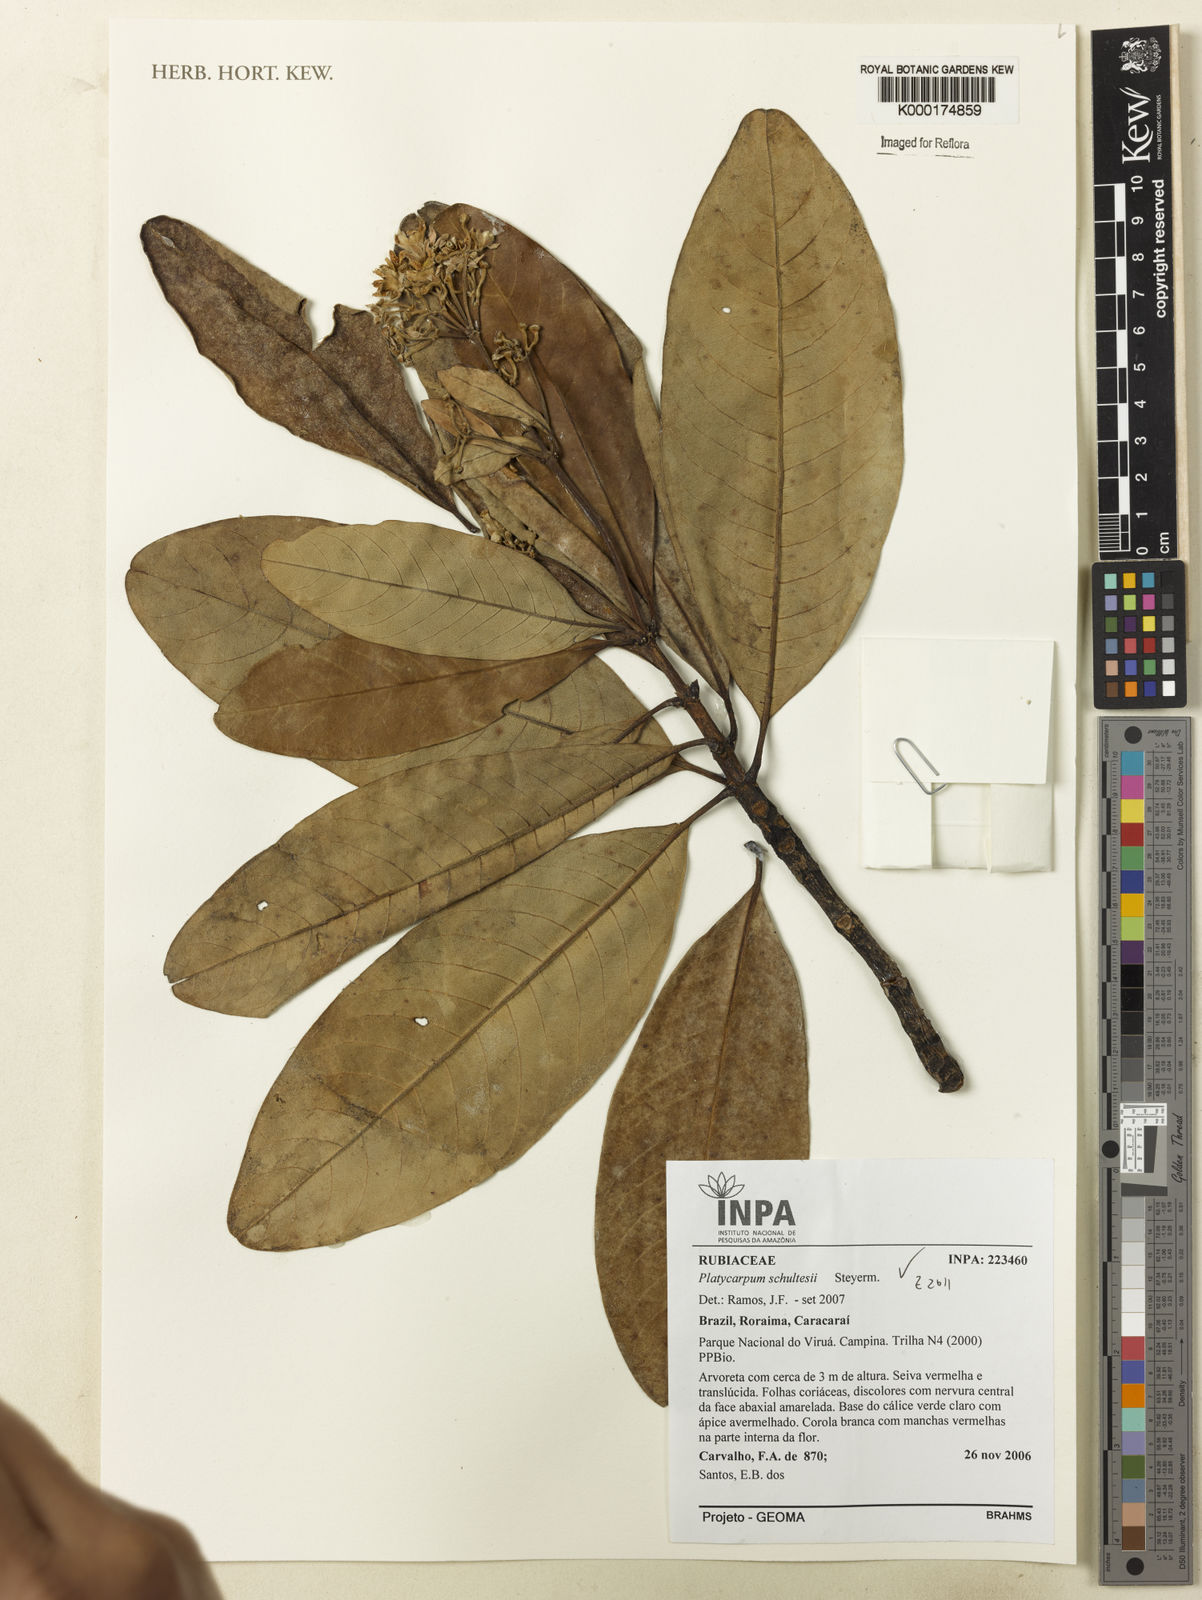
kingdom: Plantae
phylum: Tracheophyta
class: Magnoliopsida
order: Gentianales
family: Rubiaceae
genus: Platycarpum
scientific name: Platycarpum schultesii
